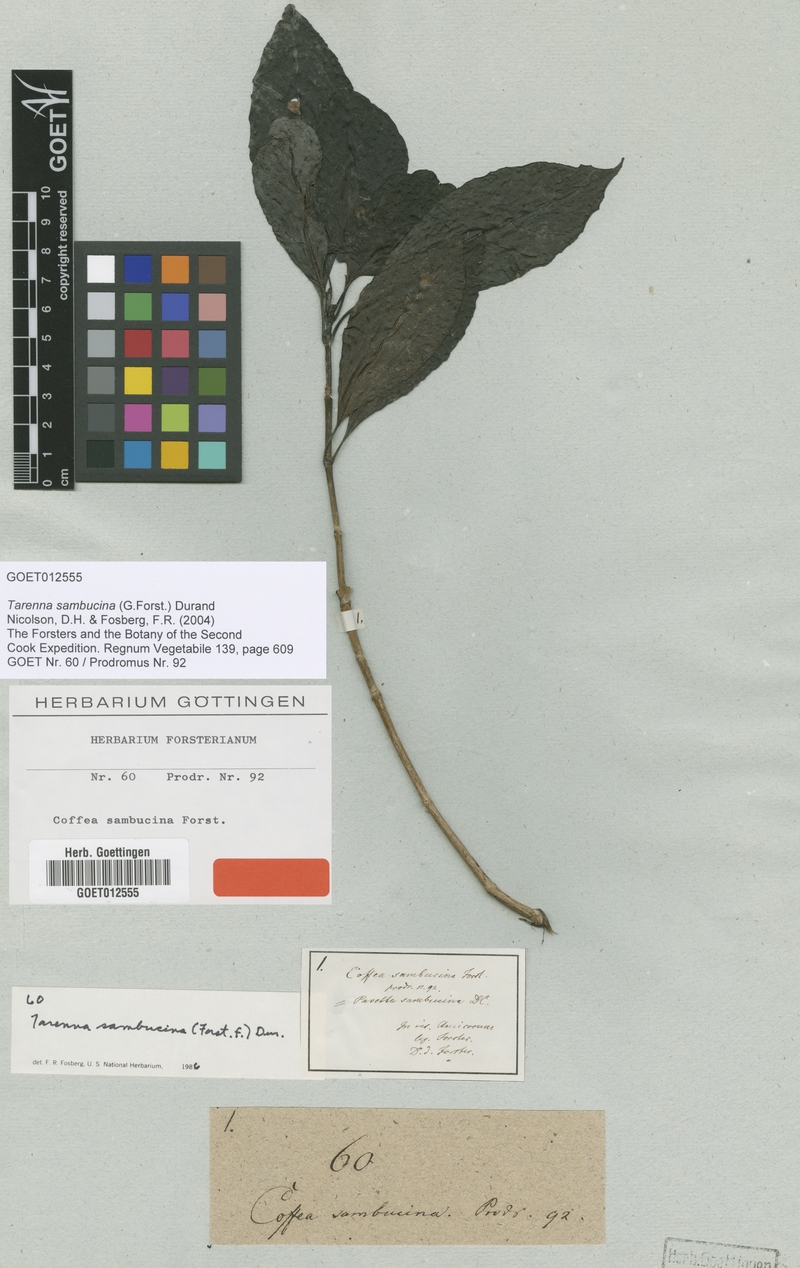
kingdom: Plantae
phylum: Tracheophyta
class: Magnoliopsida
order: Gentianales
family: Rubiaceae
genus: Tarenna
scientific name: Tarenna sambucina
